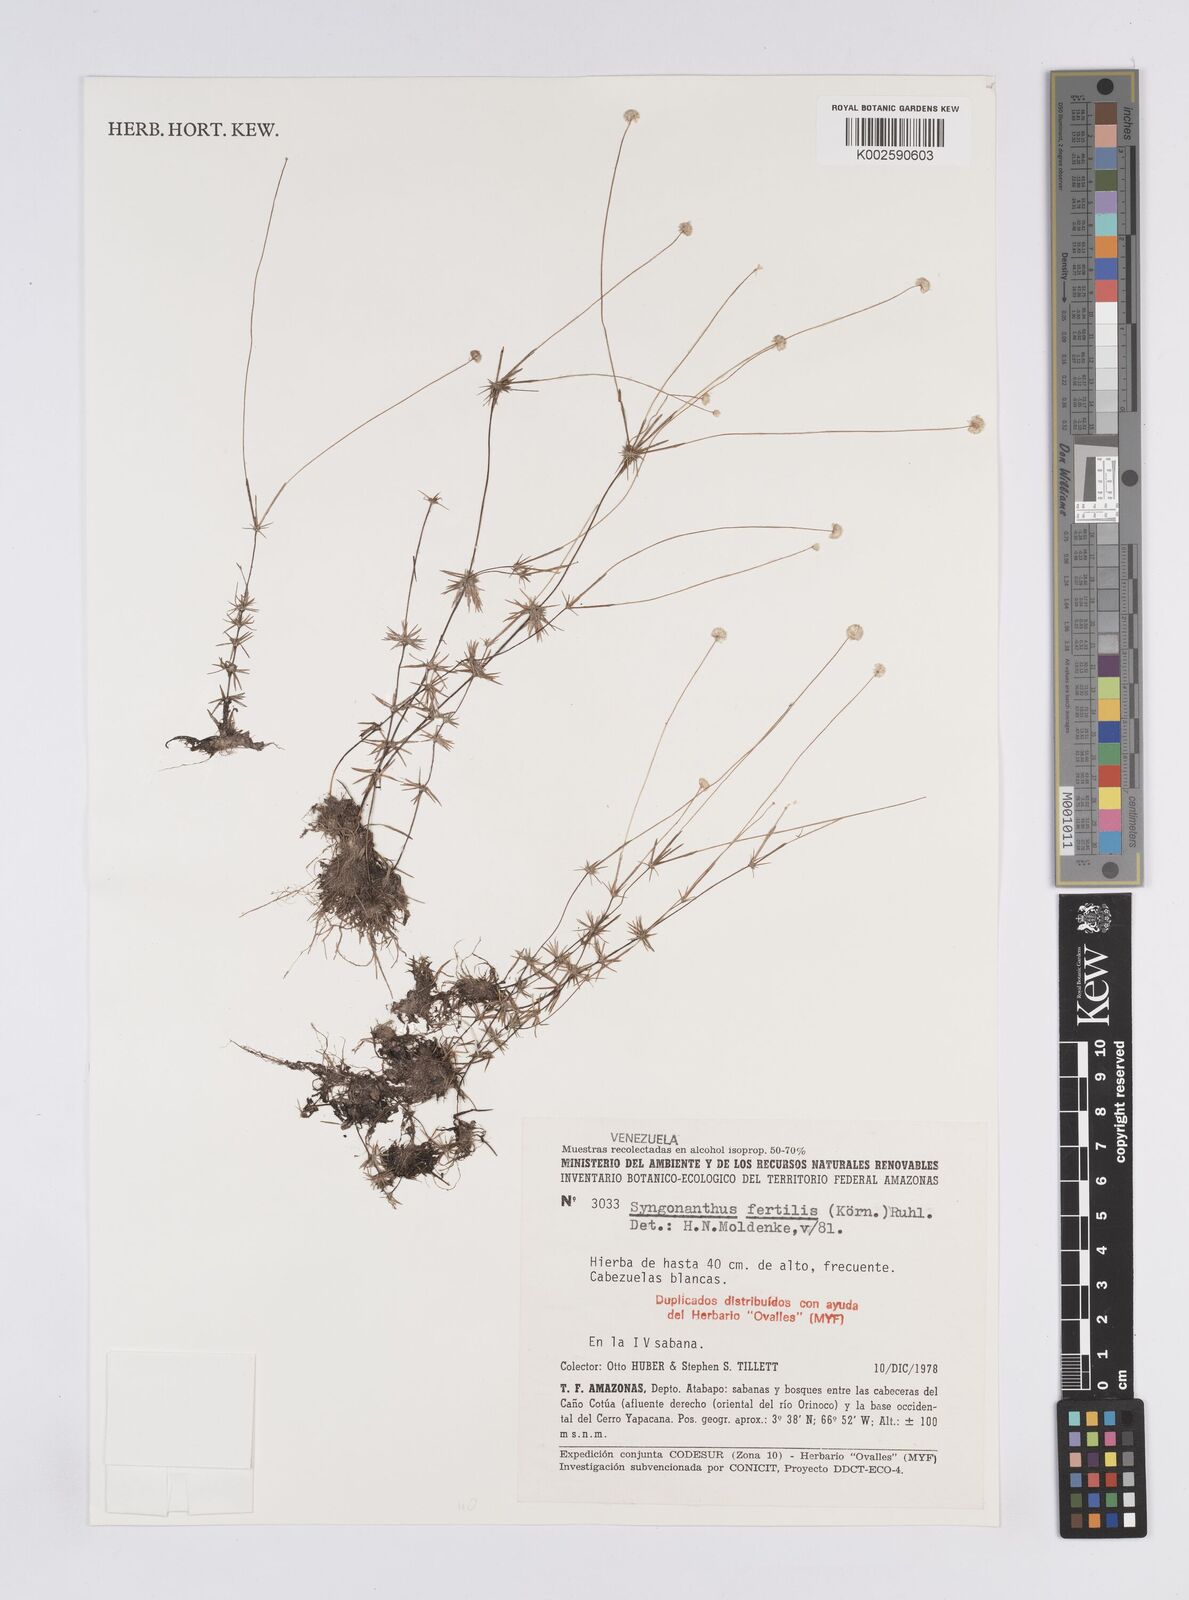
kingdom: Plantae
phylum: Tracheophyta
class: Liliopsida
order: Poales
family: Eriocaulaceae
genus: Syngonanthus
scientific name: Syngonanthus humboldtii
